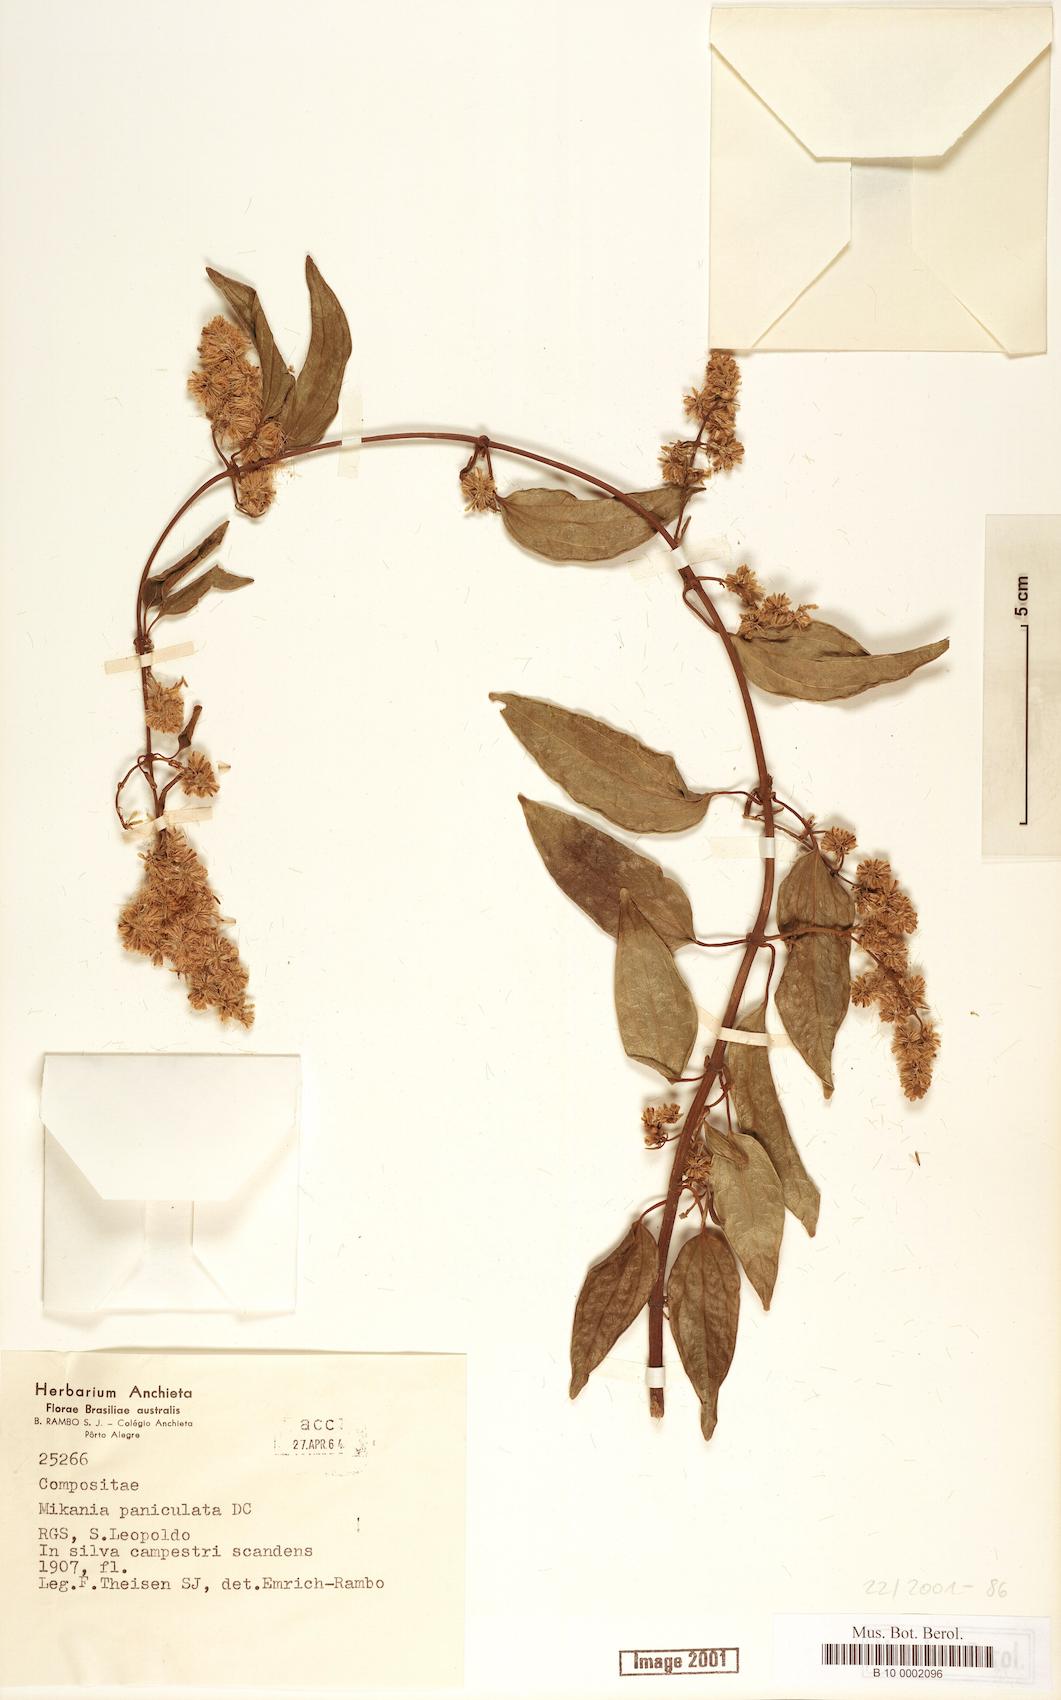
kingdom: Plantae
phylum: Tracheophyta
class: Magnoliopsida
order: Asterales
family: Asteraceae
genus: Mikania
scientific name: Mikania paniculata
